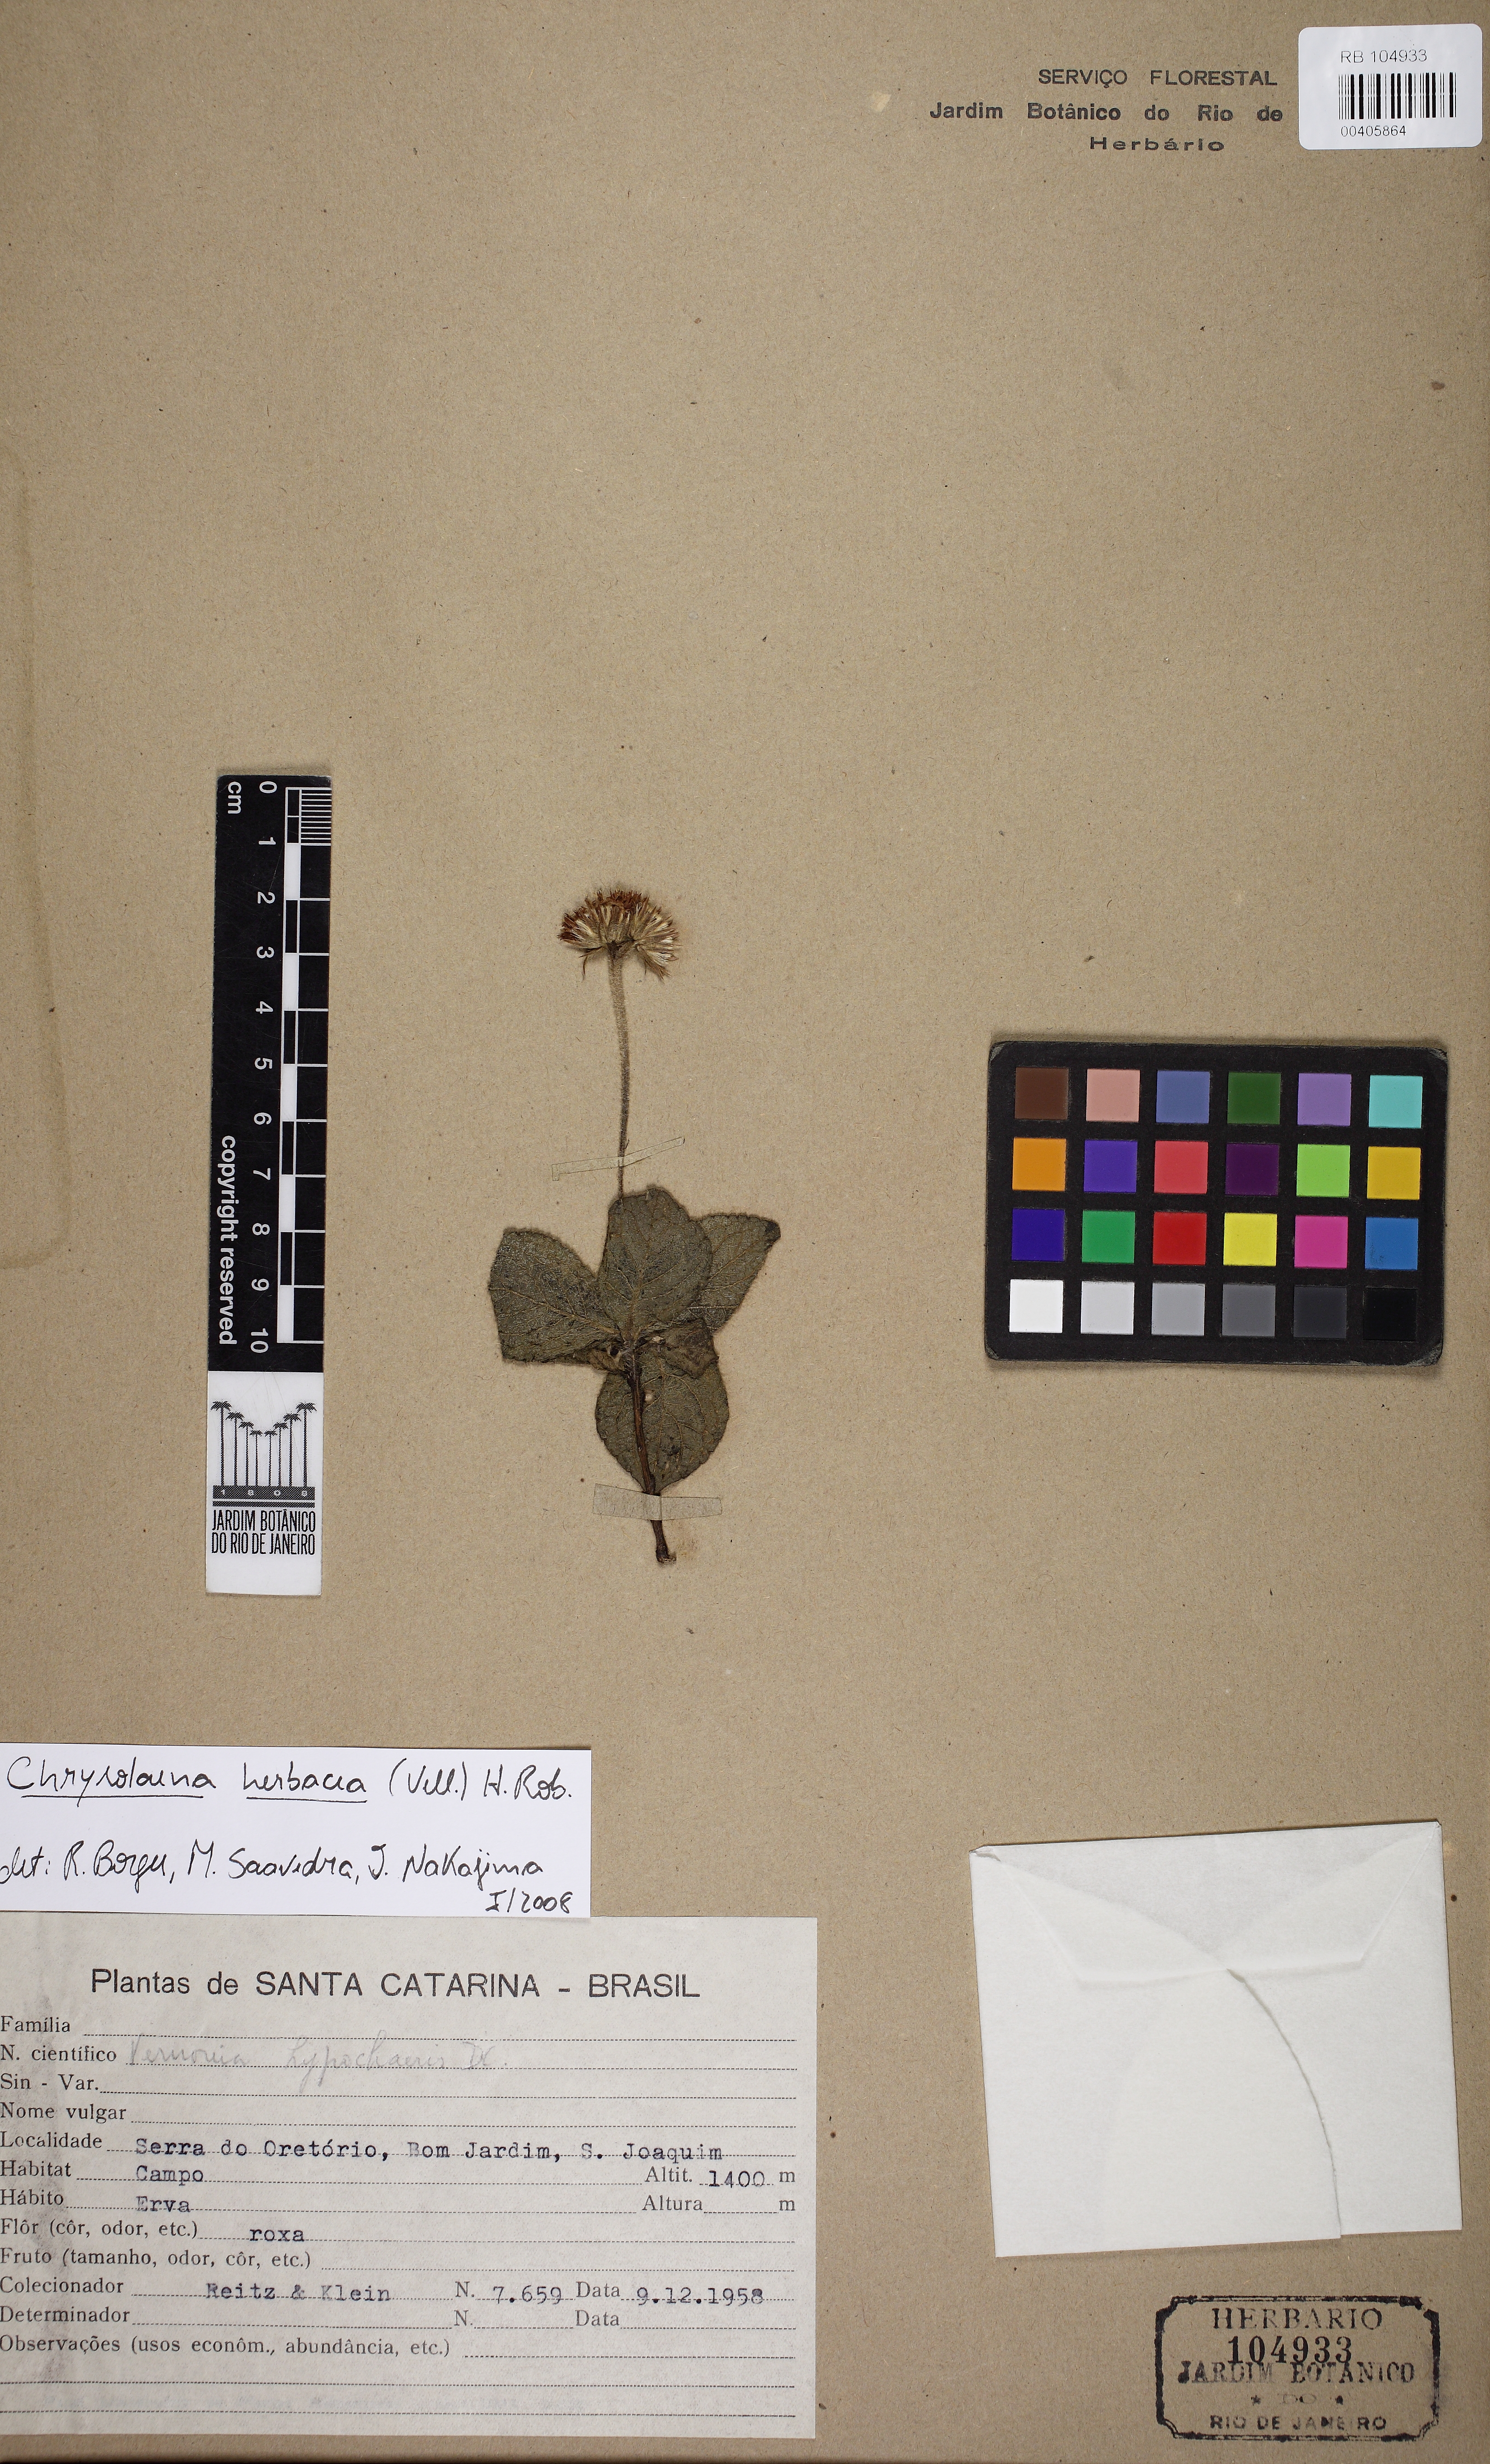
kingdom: Plantae
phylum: Tracheophyta
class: Magnoliopsida
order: Asterales
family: Asteraceae
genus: Chrysolaena
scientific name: Chrysolaena obovata
